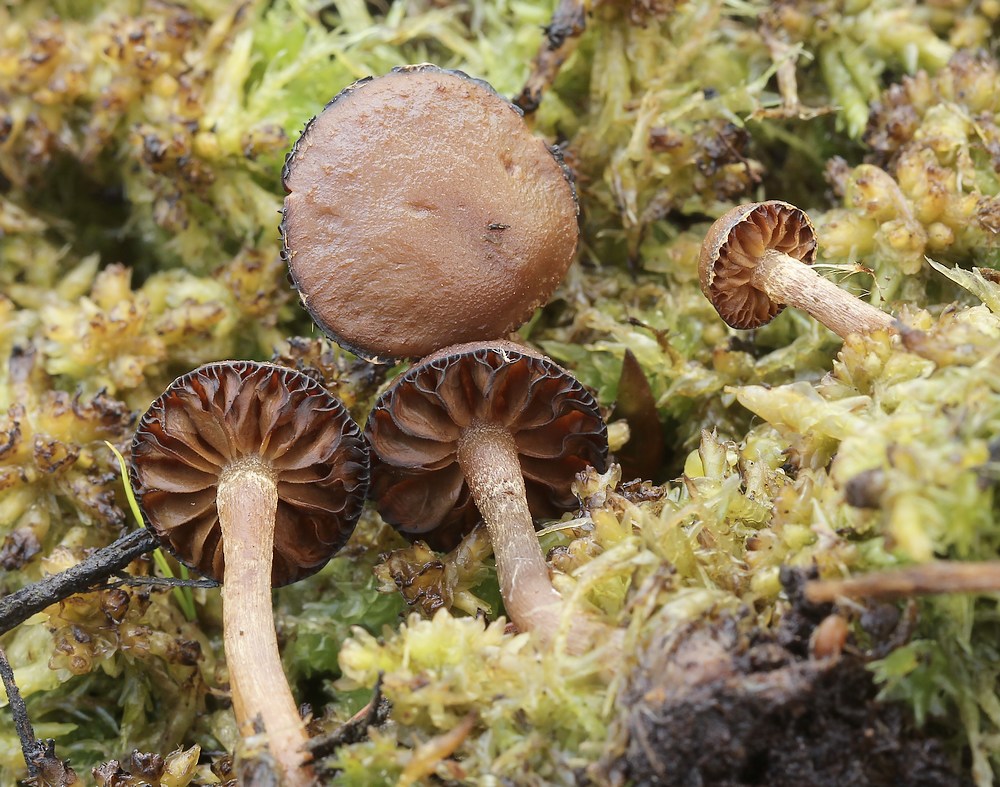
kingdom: Fungi
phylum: Basidiomycota
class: Agaricomycetes
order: Agaricales
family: Strophariaceae
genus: Hypholoma
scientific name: Hypholoma
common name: svovlhat
